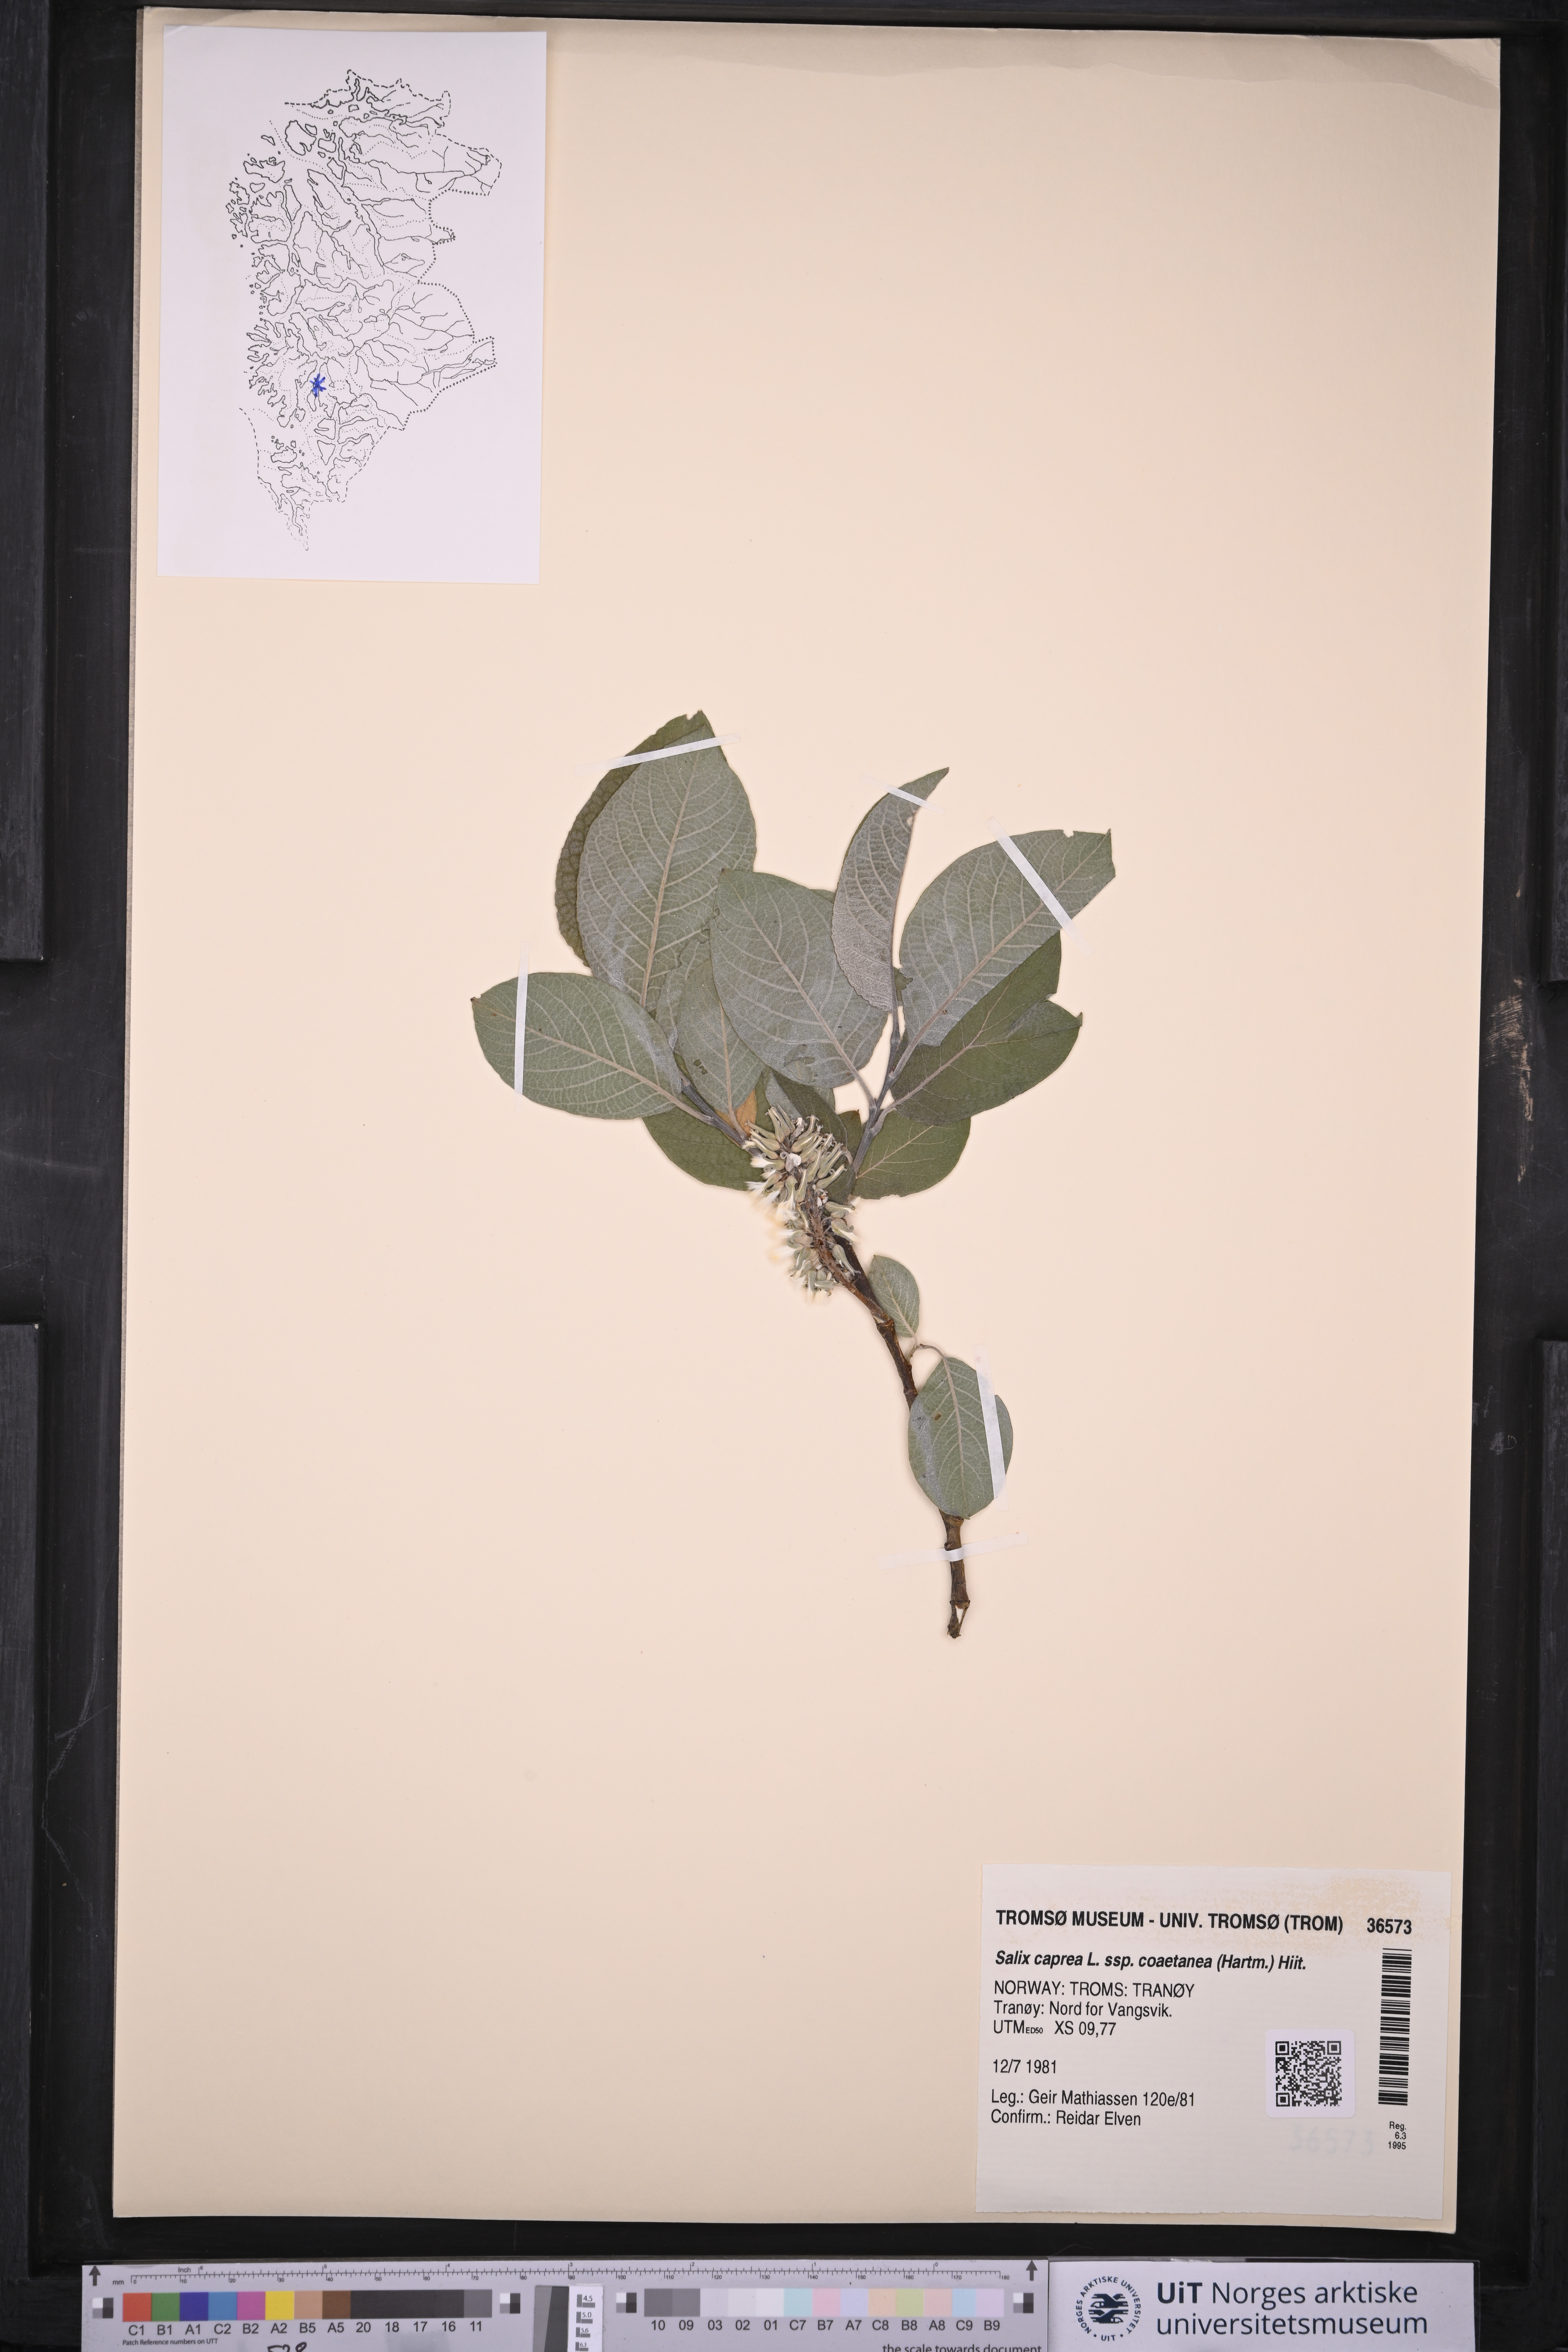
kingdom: Plantae
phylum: Tracheophyta
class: Magnoliopsida
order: Malpighiales
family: Salicaceae
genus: Salix
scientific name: Salix caprea
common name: Goat willow
